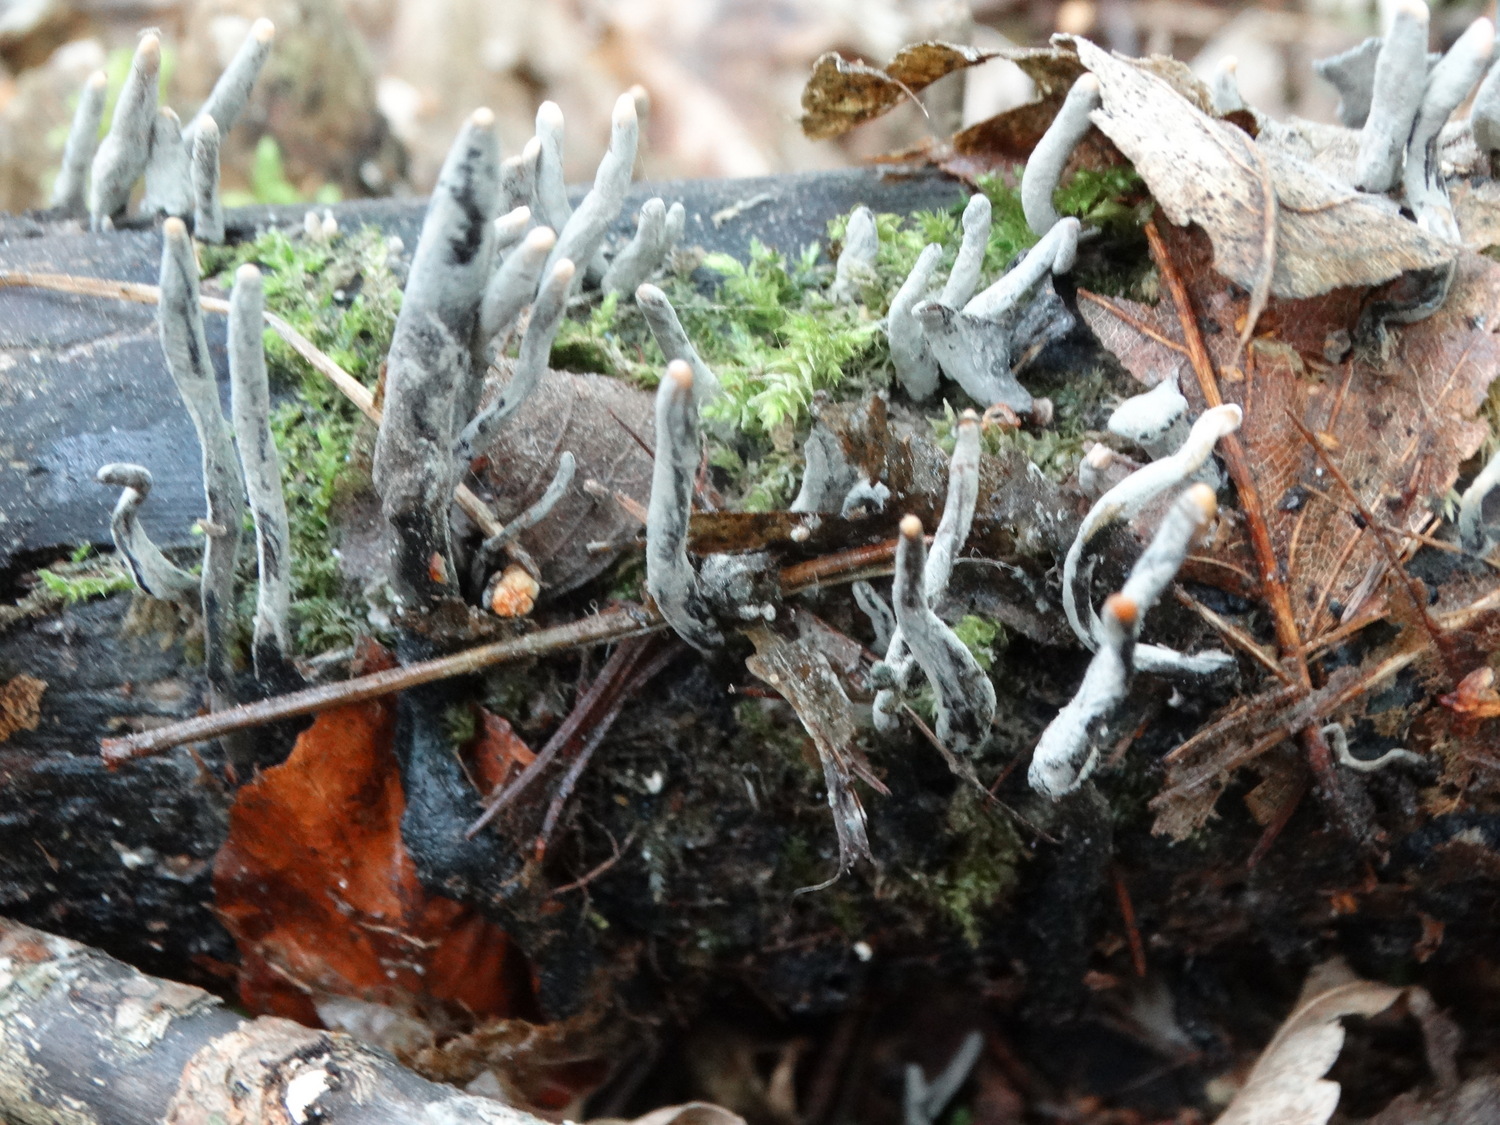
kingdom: Fungi
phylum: Ascomycota
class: Sordariomycetes
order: Xylariales
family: Xylariaceae
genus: Xylaria
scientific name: Xylaria hypoxylon
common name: grenet stødsvamp
